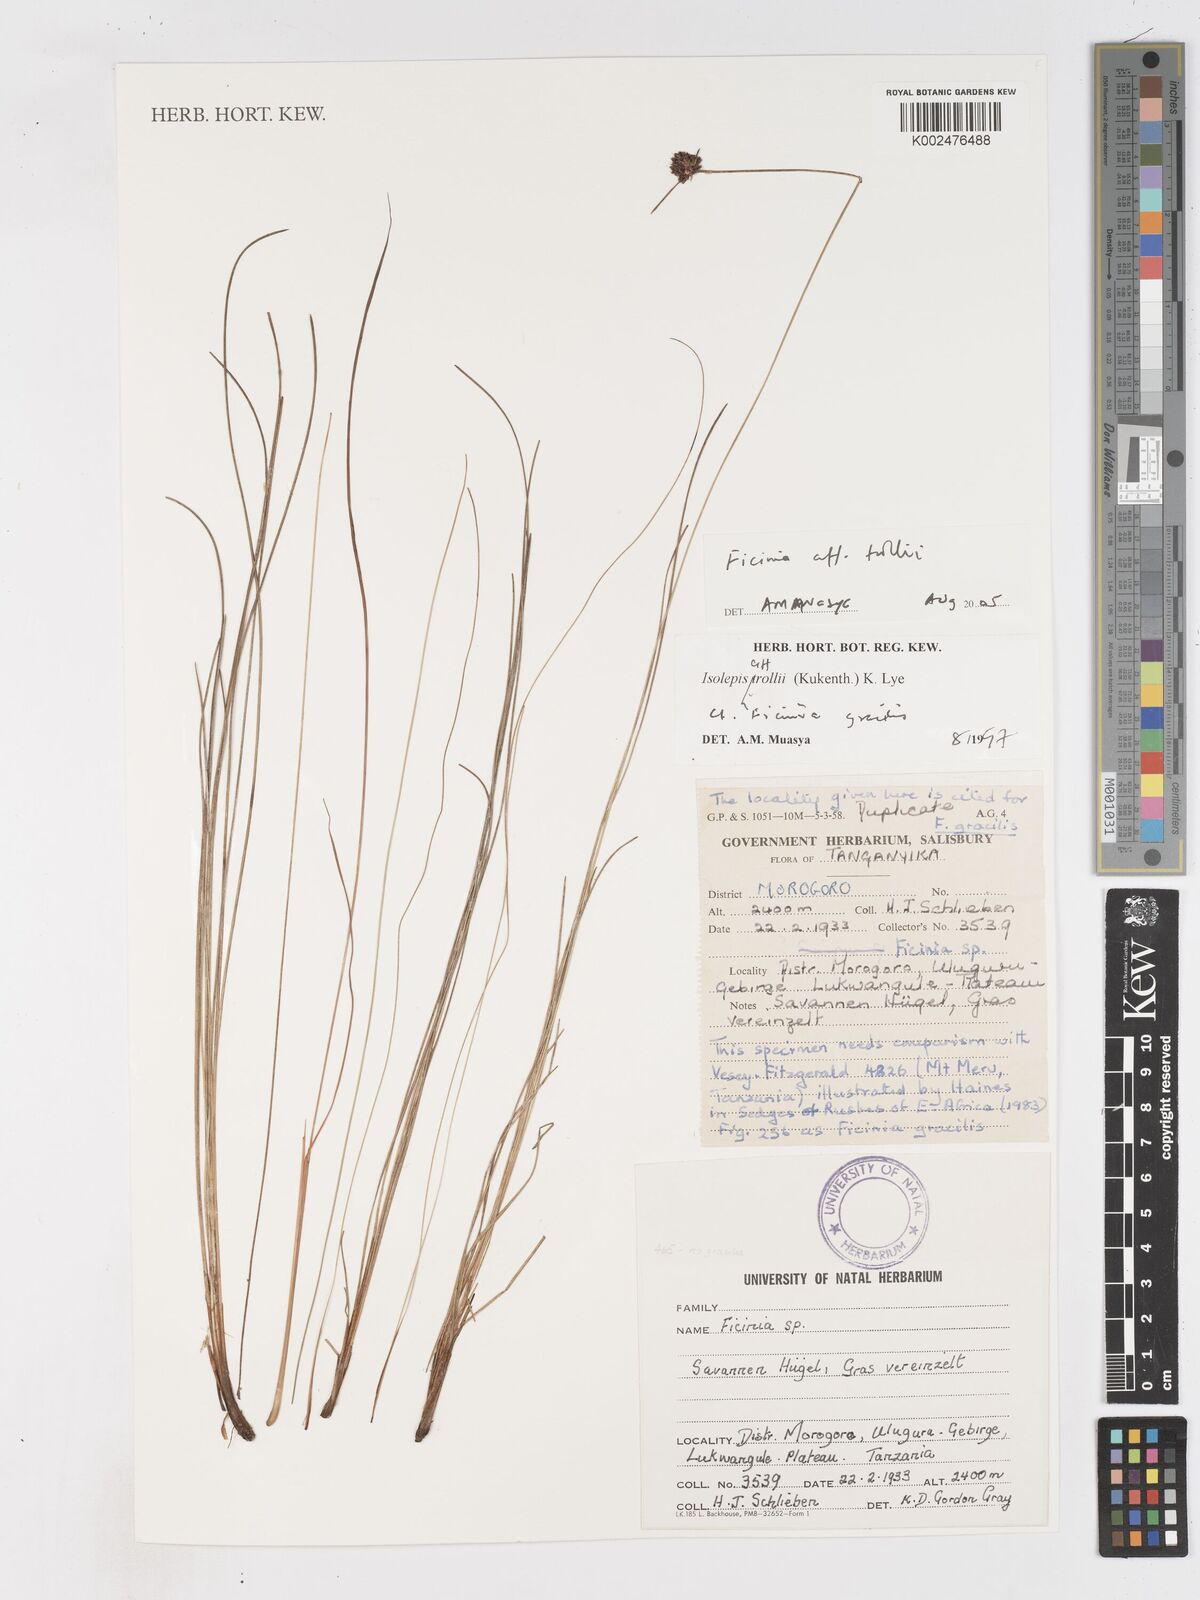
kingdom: Plantae
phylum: Tracheophyta
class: Liliopsida
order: Poales
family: Cyperaceae
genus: Ficinia
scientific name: Ficinia trollii
